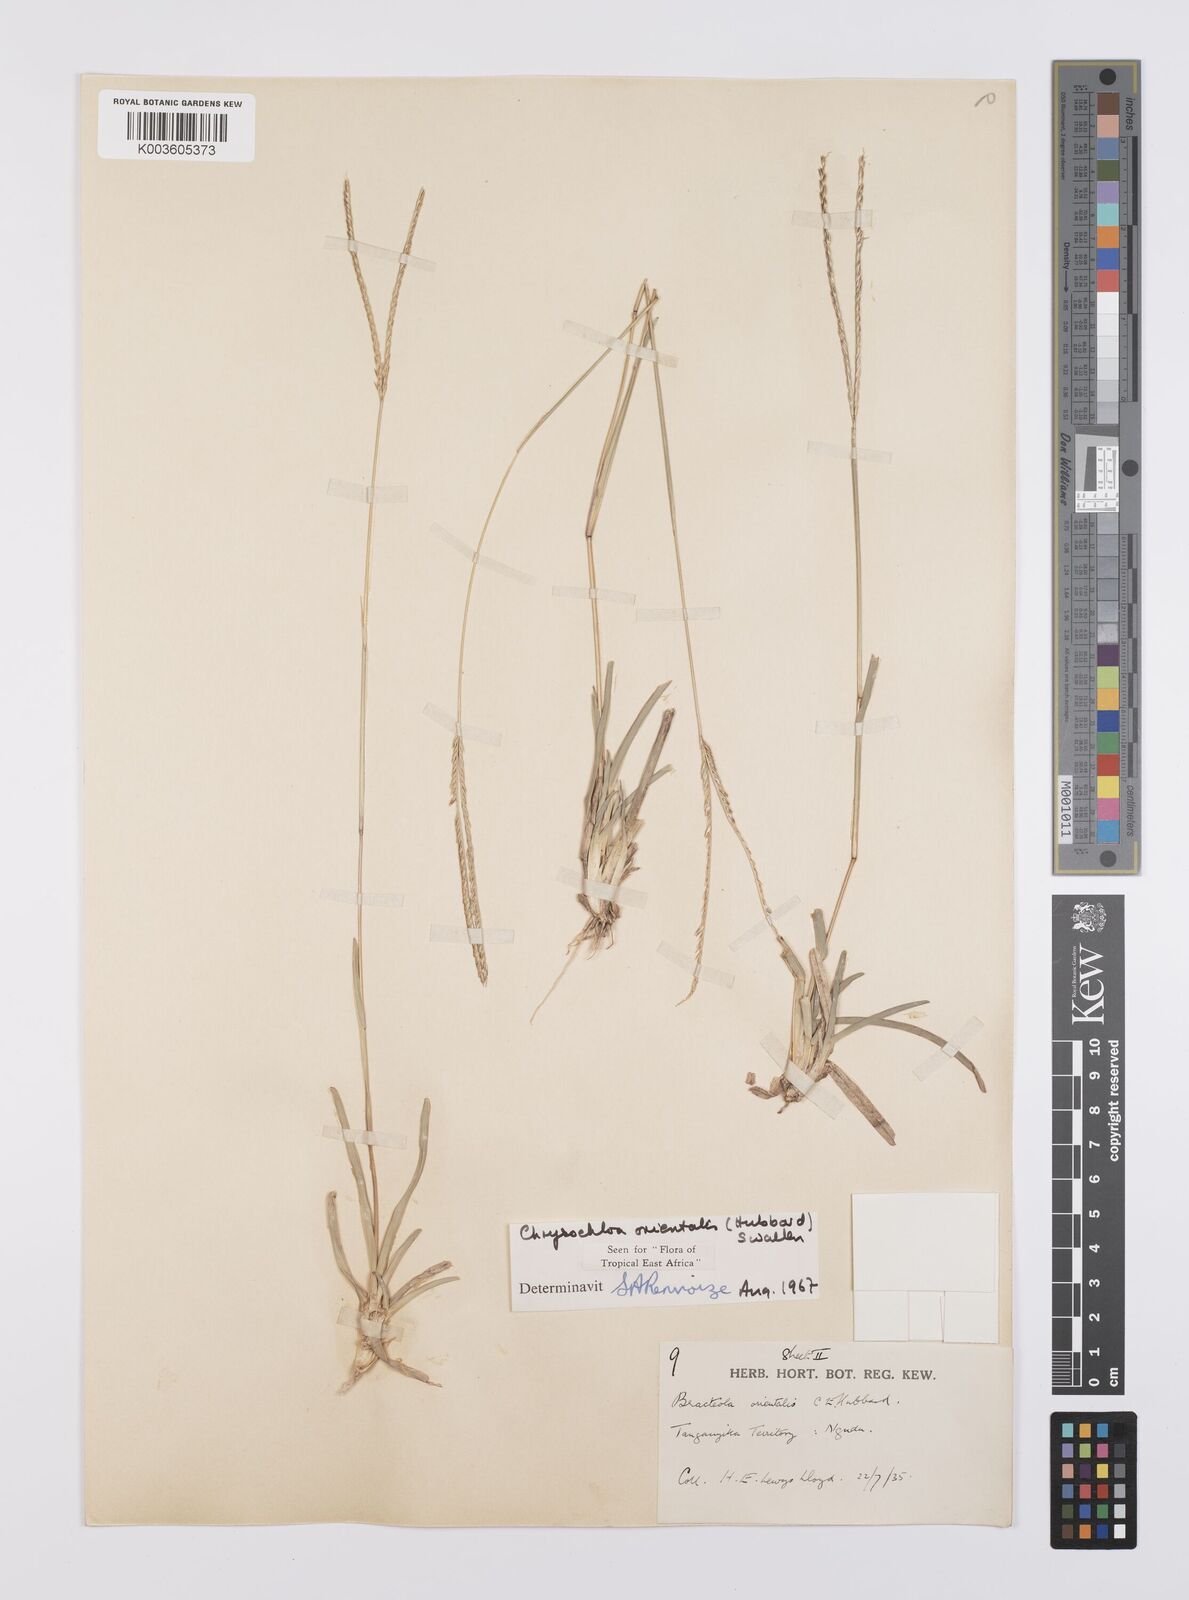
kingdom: Plantae
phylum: Tracheophyta
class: Liliopsida
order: Poales
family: Poaceae
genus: Chrysochloa
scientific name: Chrysochloa orientalis
